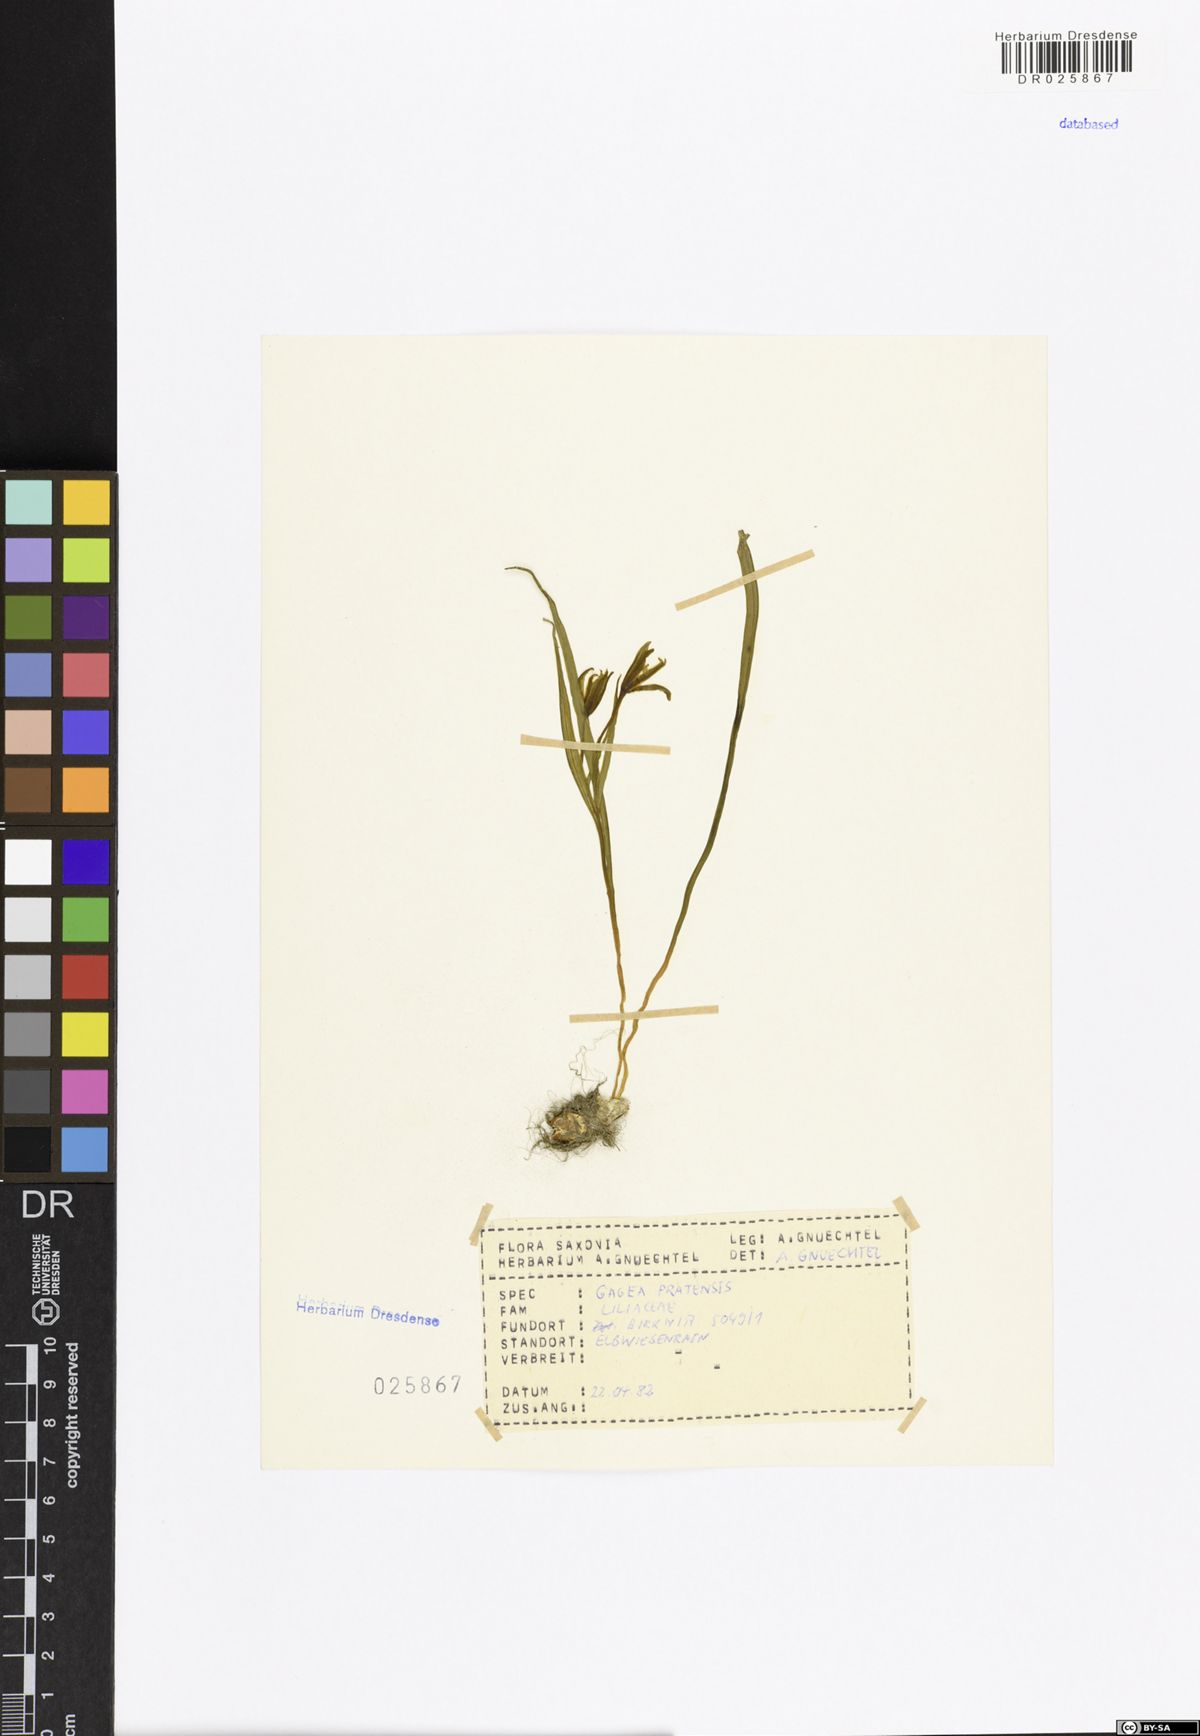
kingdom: Plantae
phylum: Tracheophyta
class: Liliopsida
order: Liliales
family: Liliaceae
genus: Gagea
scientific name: Gagea pratensis
